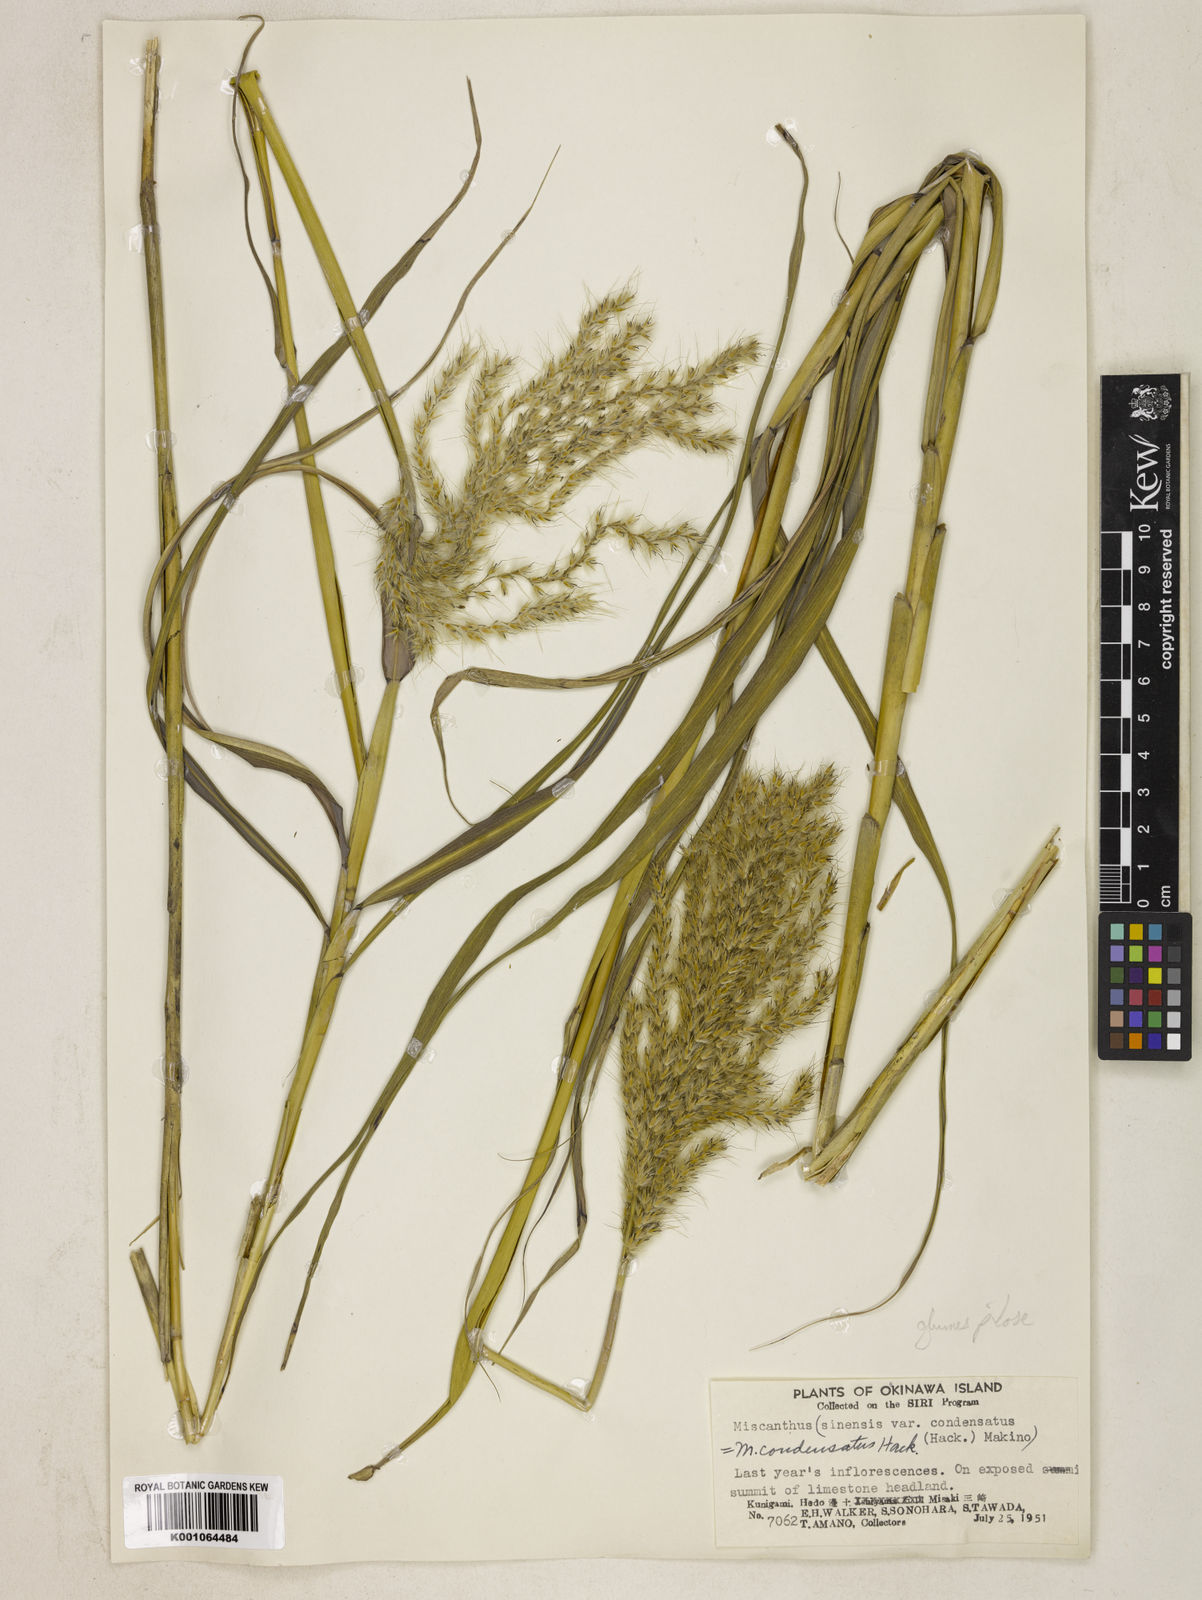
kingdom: Plantae
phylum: Tracheophyta
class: Liliopsida
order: Poales
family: Poaceae
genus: Miscanthus
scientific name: Miscanthus sinensis
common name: Chinese silvergrass
